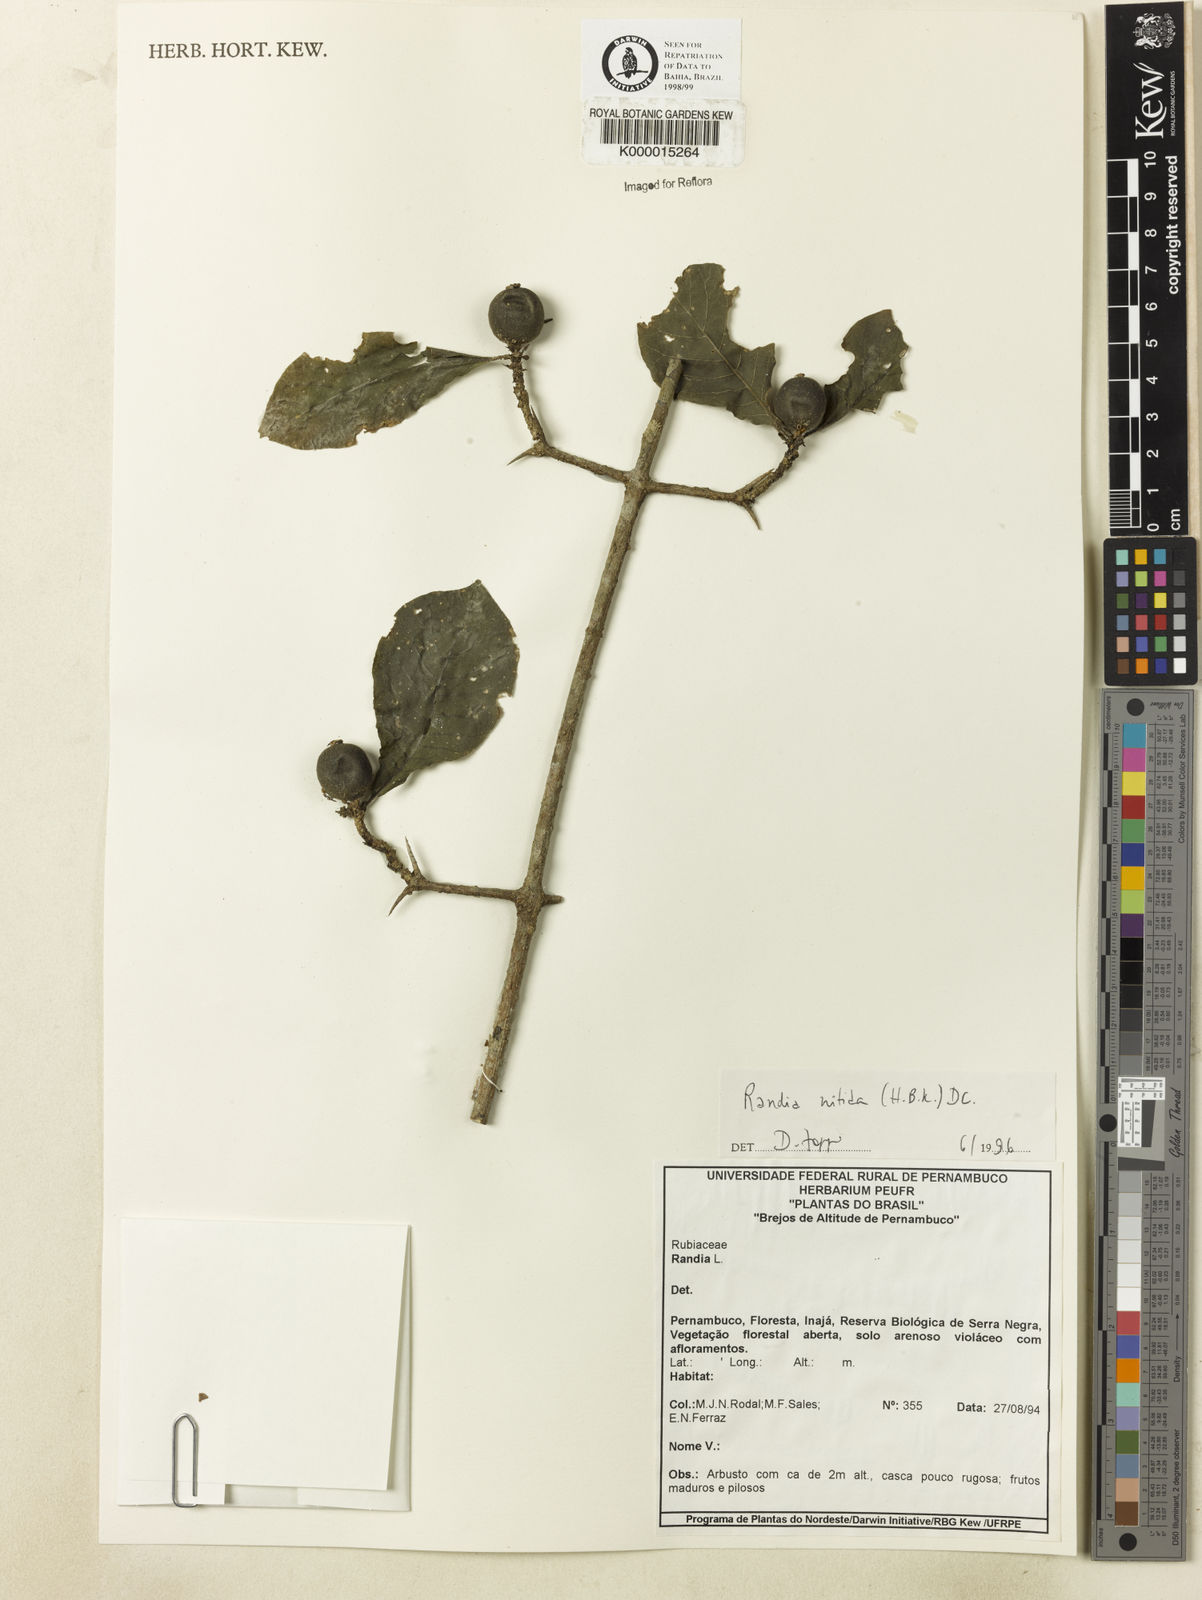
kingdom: Plantae
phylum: Tracheophyta
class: Magnoliopsida
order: Gentianales
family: Rubiaceae
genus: Randia
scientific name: Randia nitida
